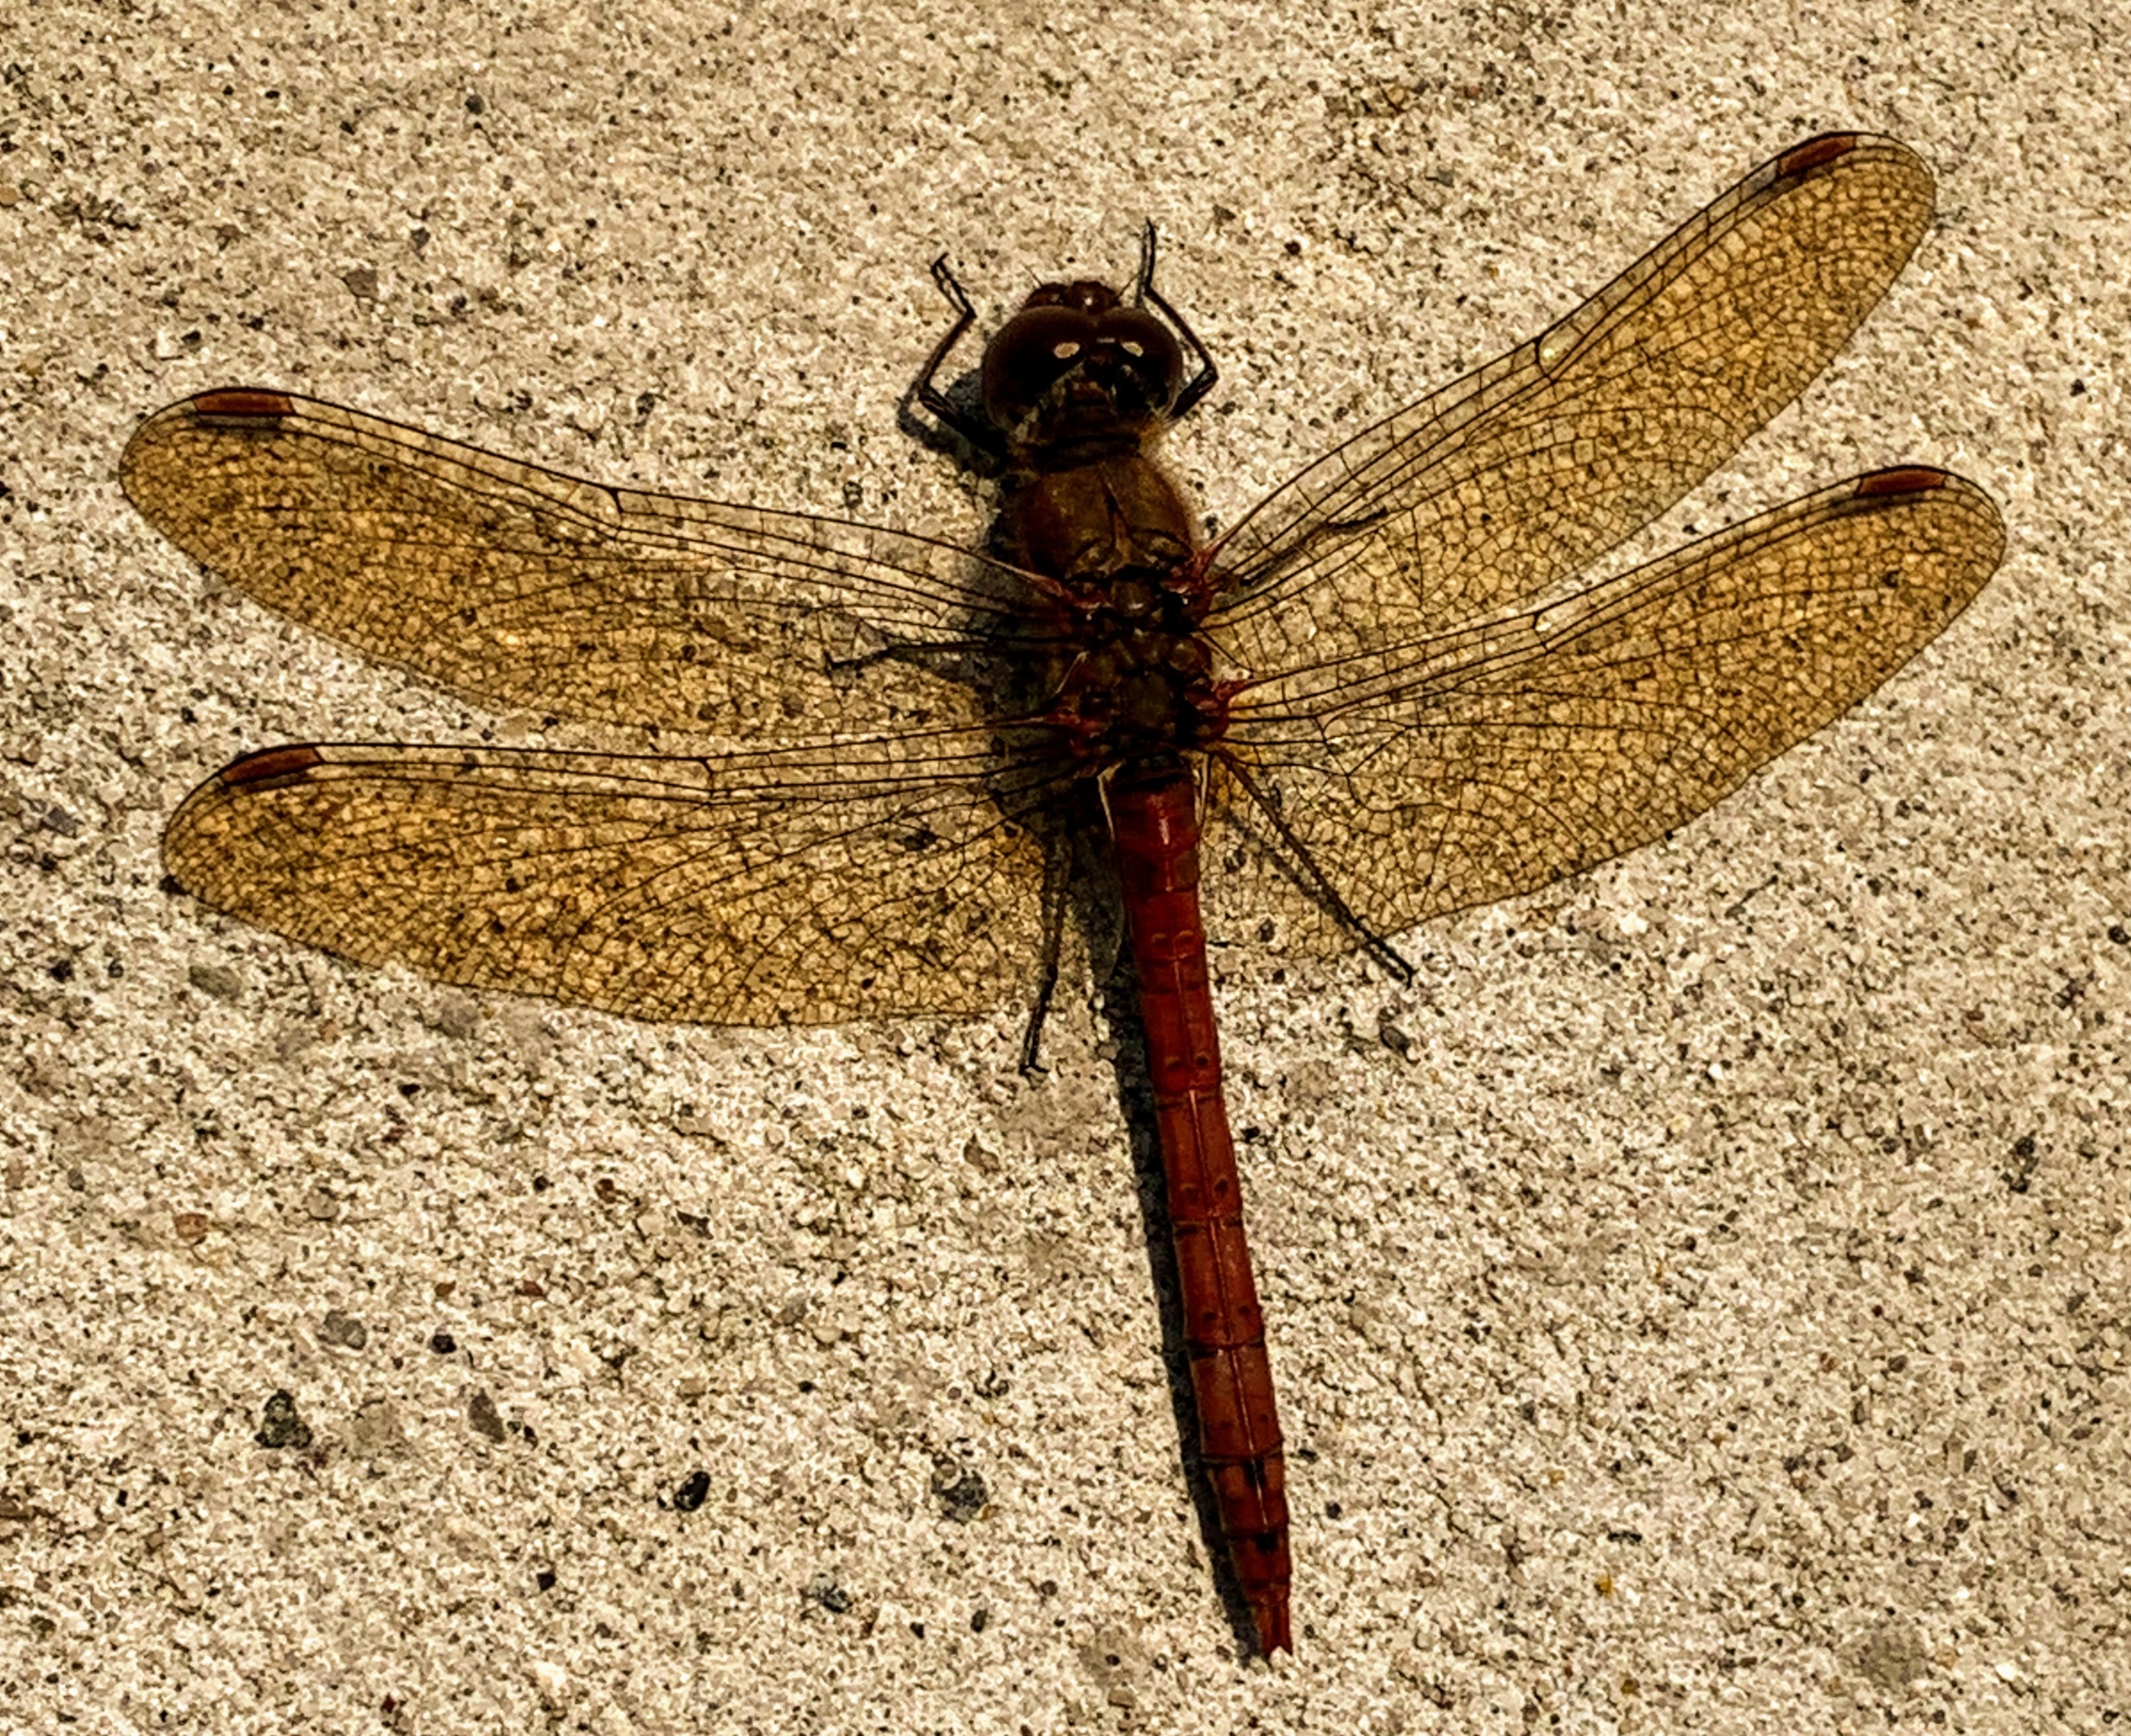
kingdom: Animalia
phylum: Arthropoda
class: Insecta
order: Odonata
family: Libellulidae
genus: Sympetrum
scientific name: Sympetrum striolatum
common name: Stor hedelibel
